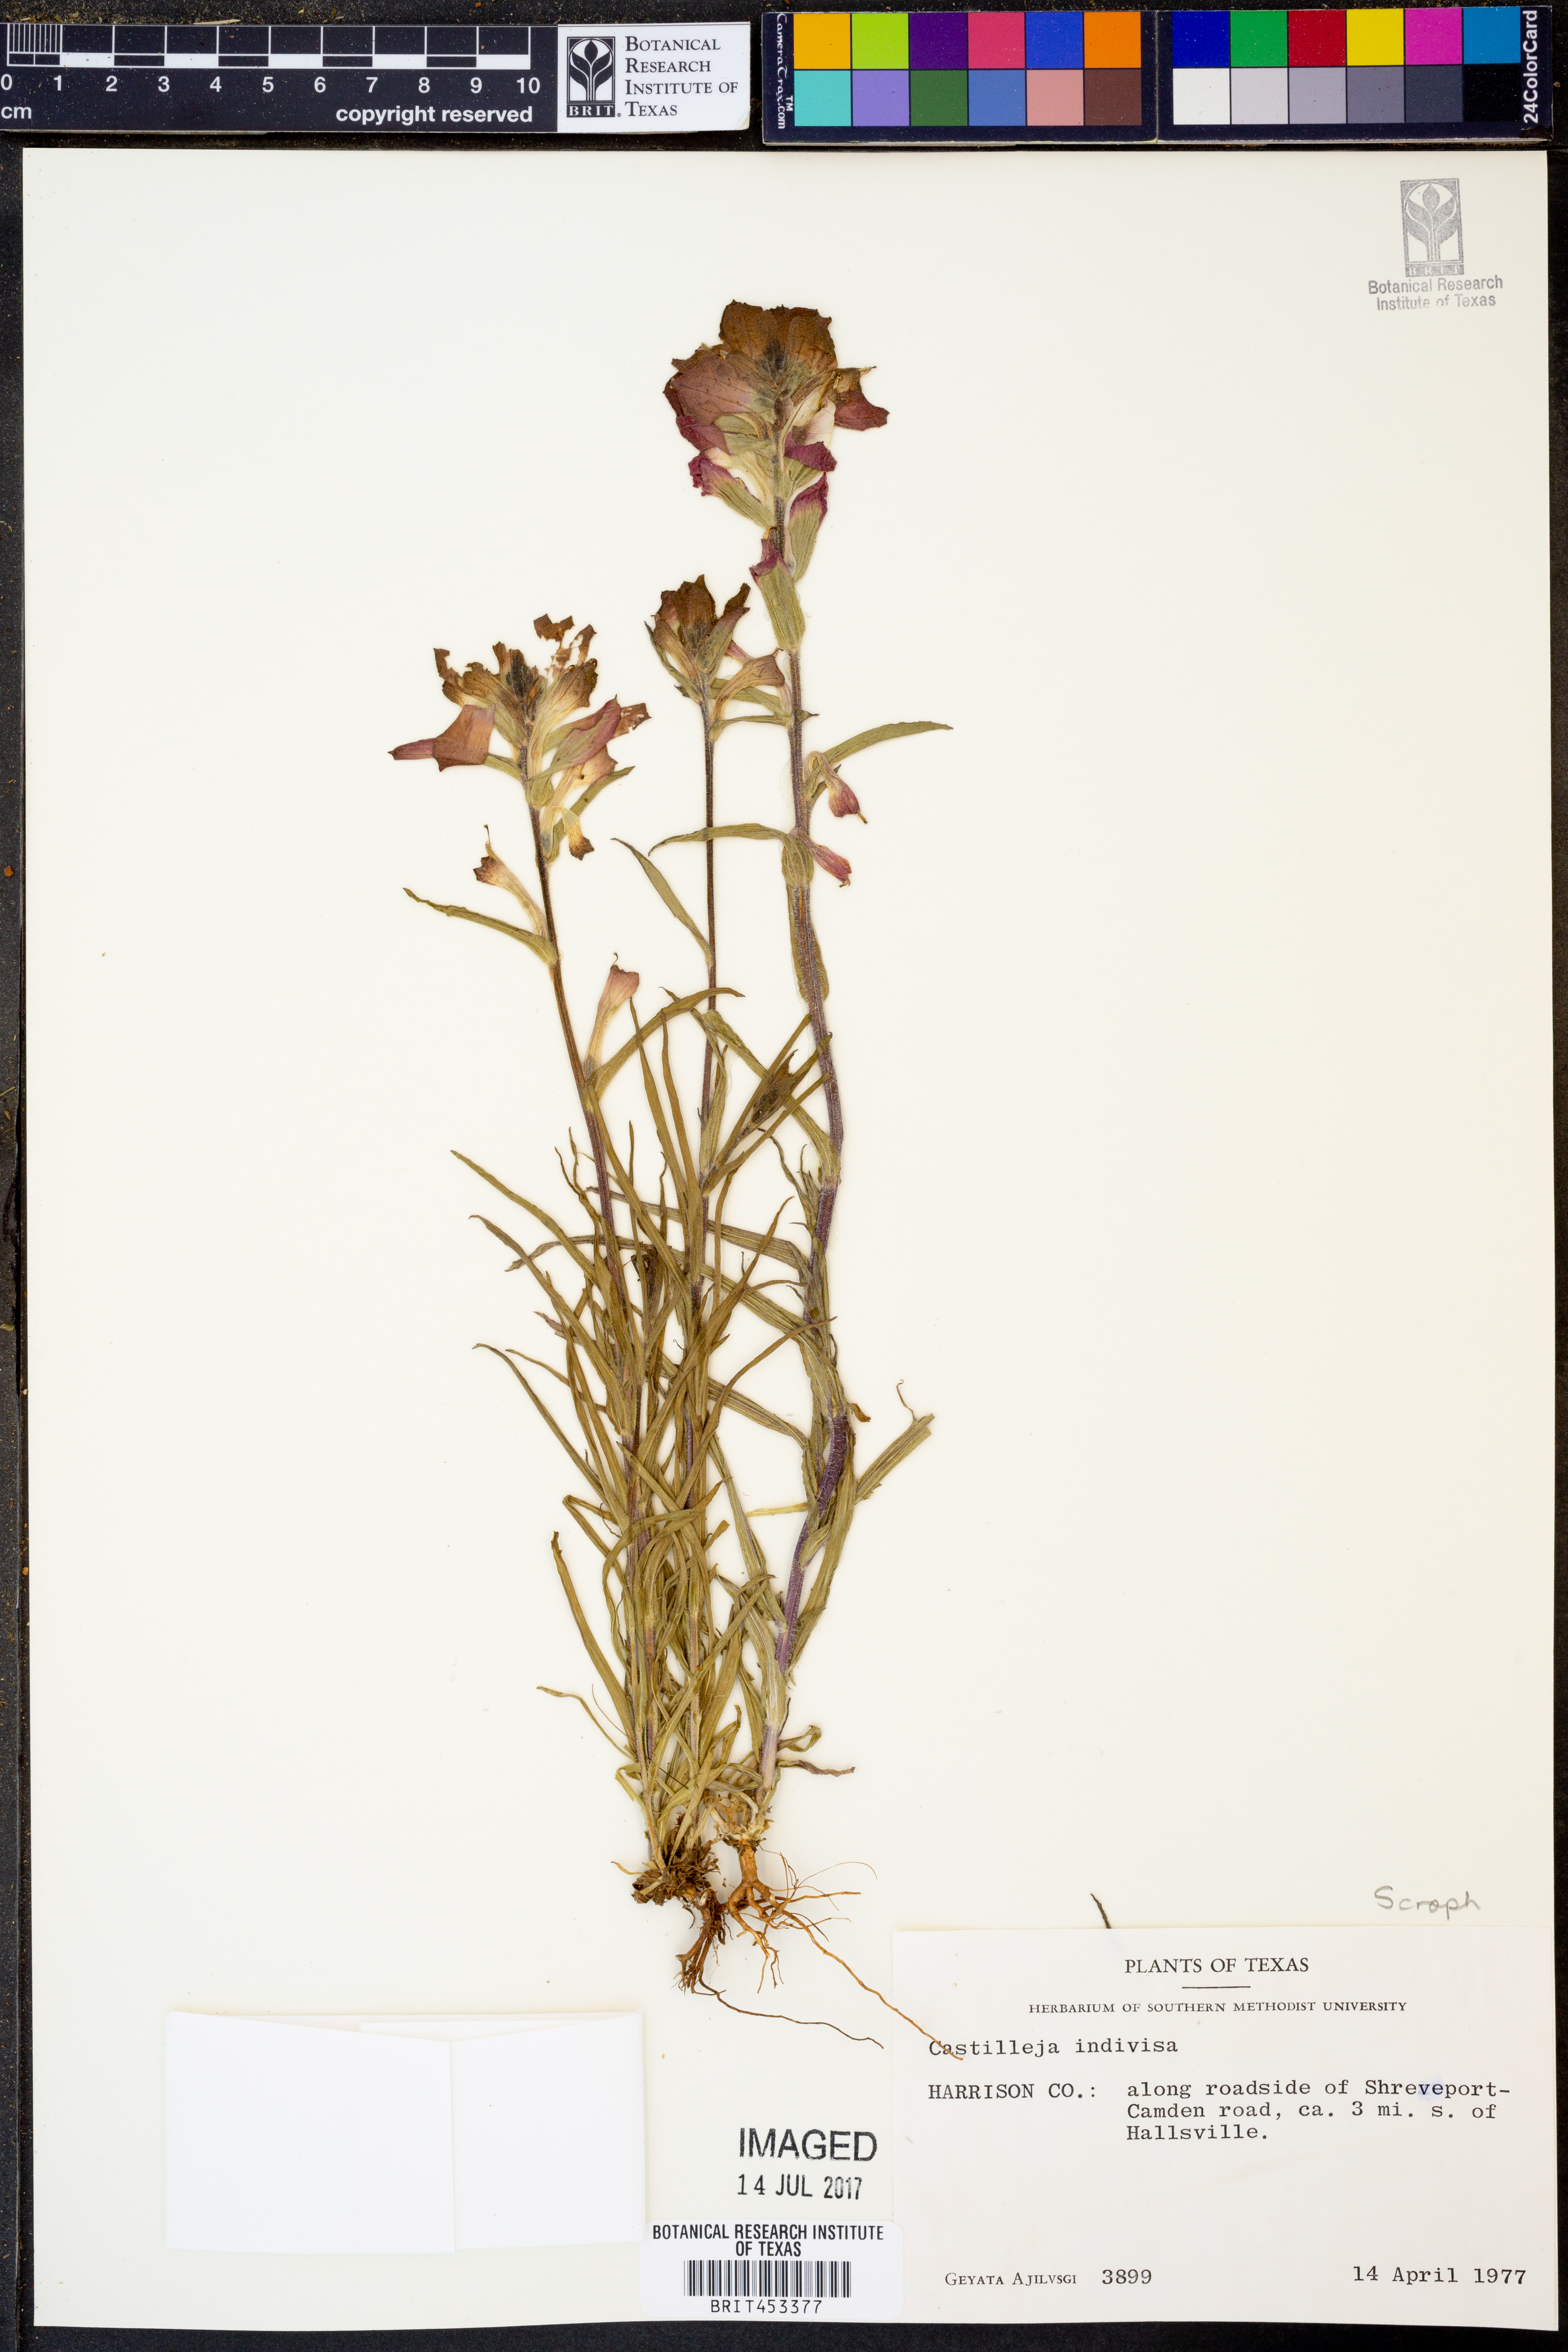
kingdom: Plantae
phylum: Tracheophyta
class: Magnoliopsida
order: Lamiales
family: Orobanchaceae
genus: Castilleja
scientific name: Castilleja indivisa
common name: Texas paintbrush
